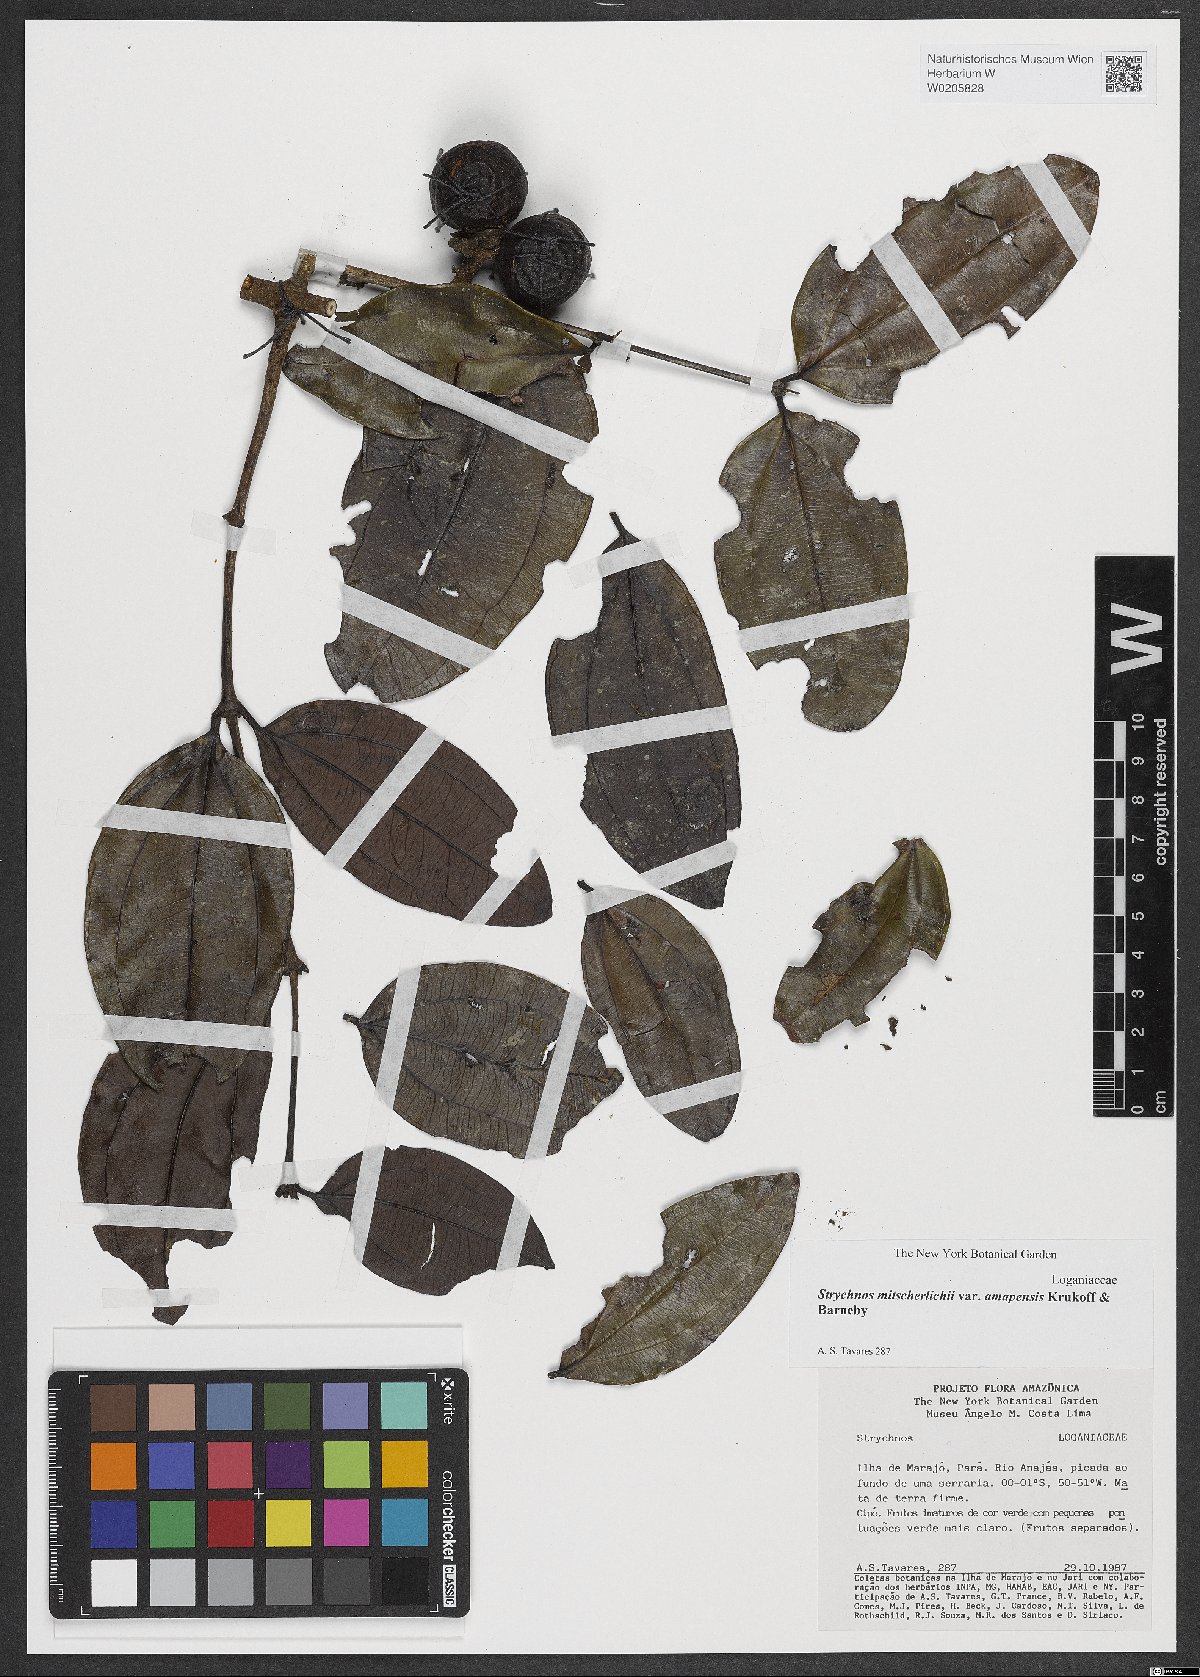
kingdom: Plantae
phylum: Tracheophyta
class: Magnoliopsida
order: Gentianales
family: Loganiaceae
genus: Strychnos
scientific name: Strychnos mitscherlichii
